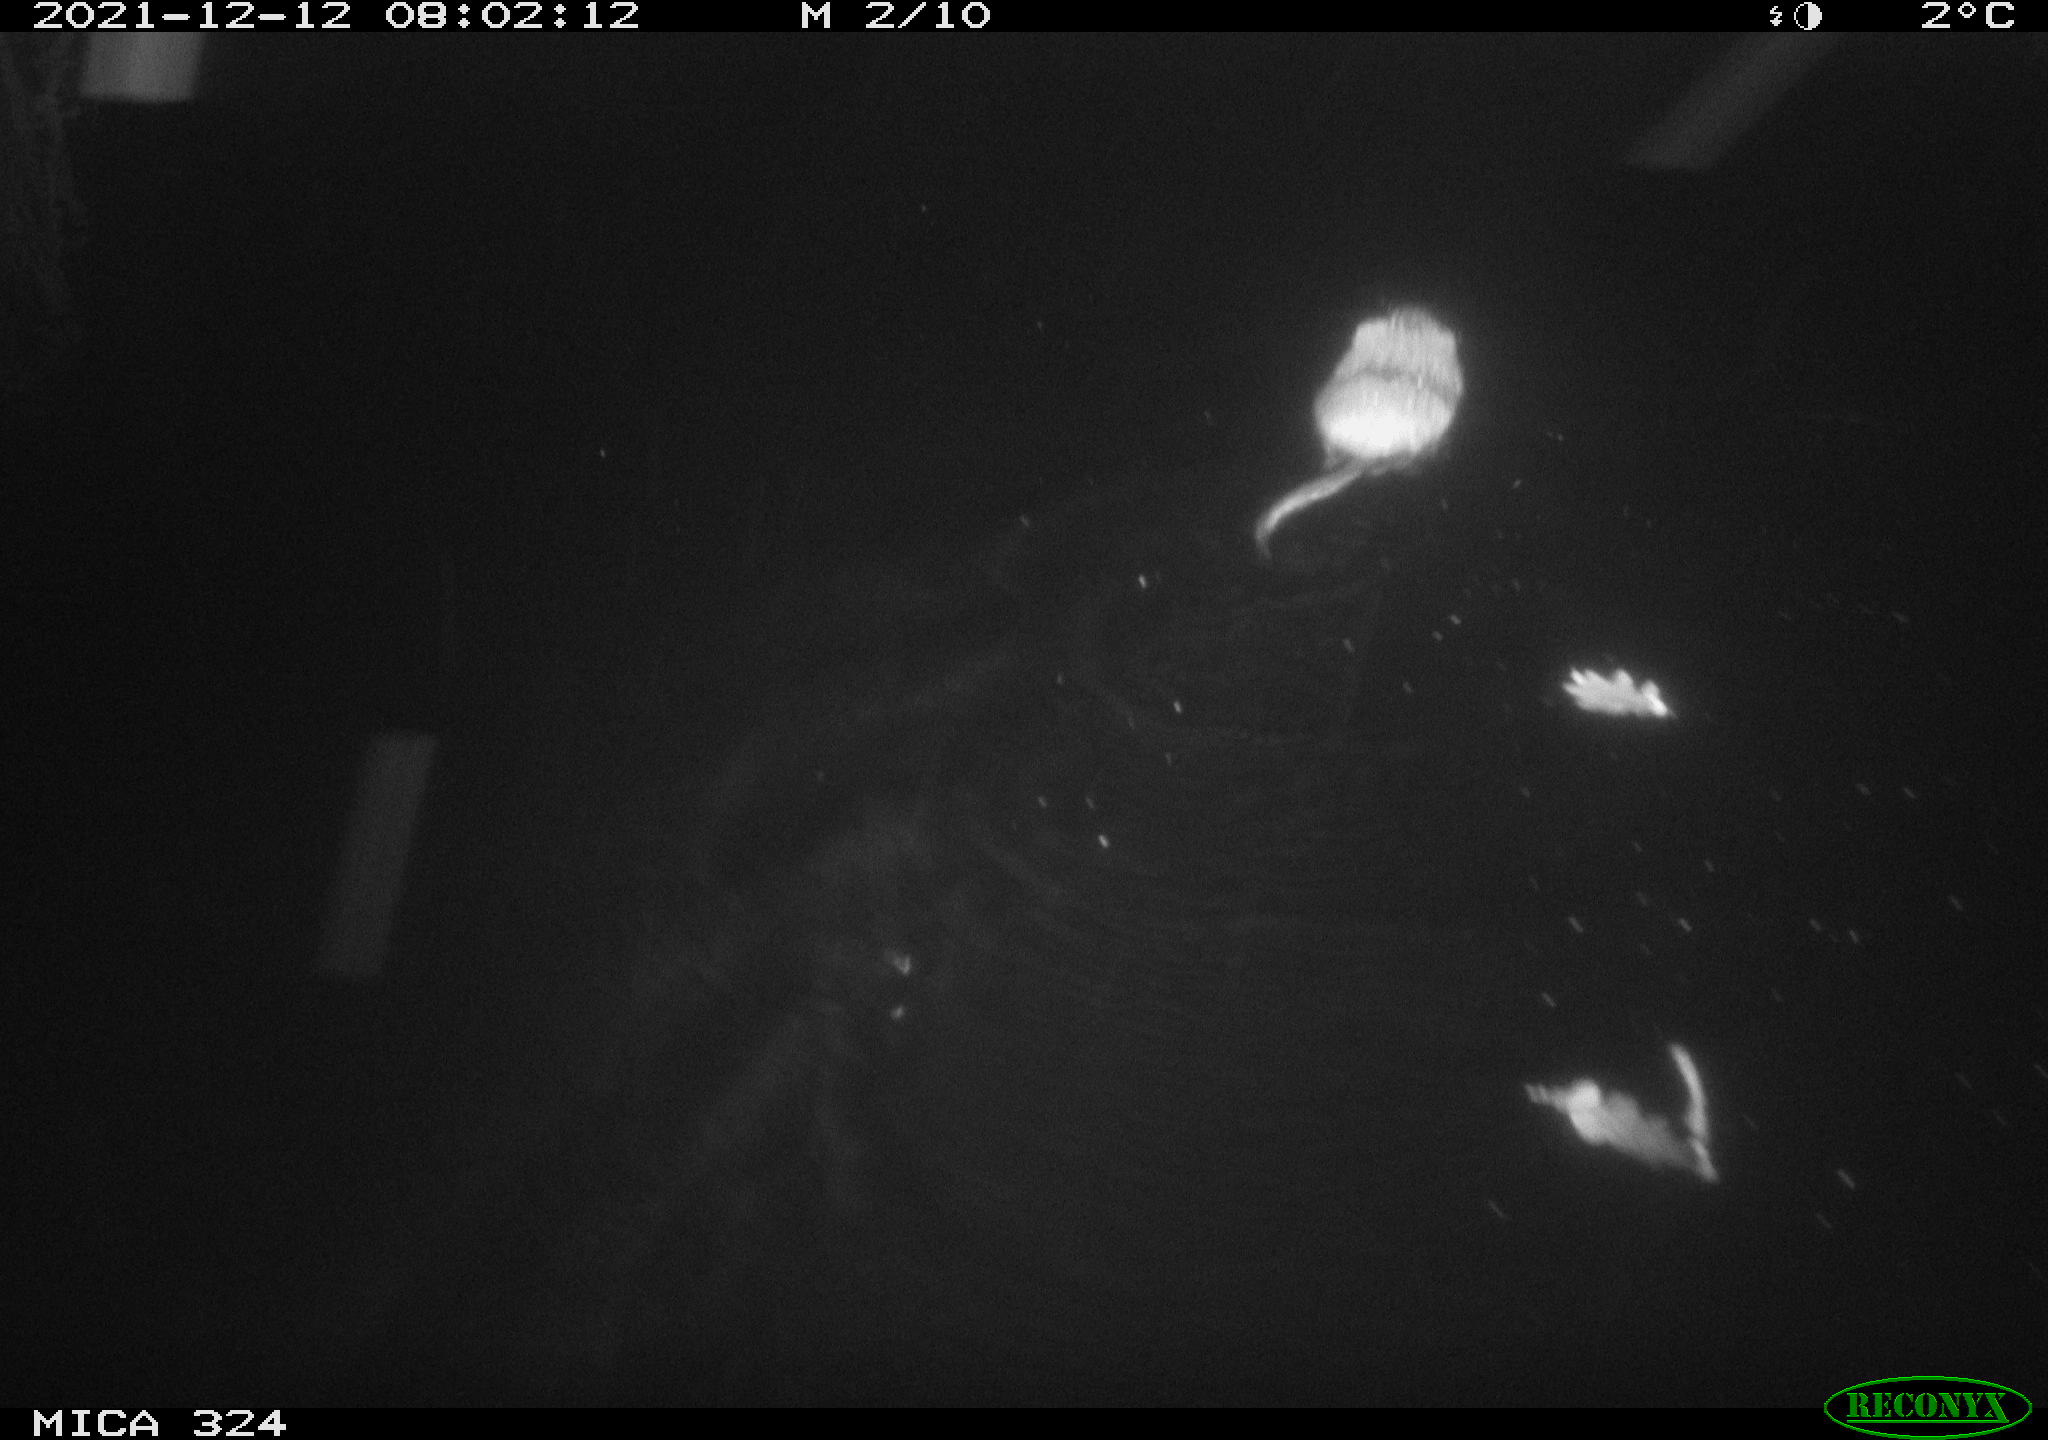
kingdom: Animalia
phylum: Chordata
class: Mammalia
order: Rodentia
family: Cricetidae
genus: Ondatra
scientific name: Ondatra zibethicus
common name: Muskrat
